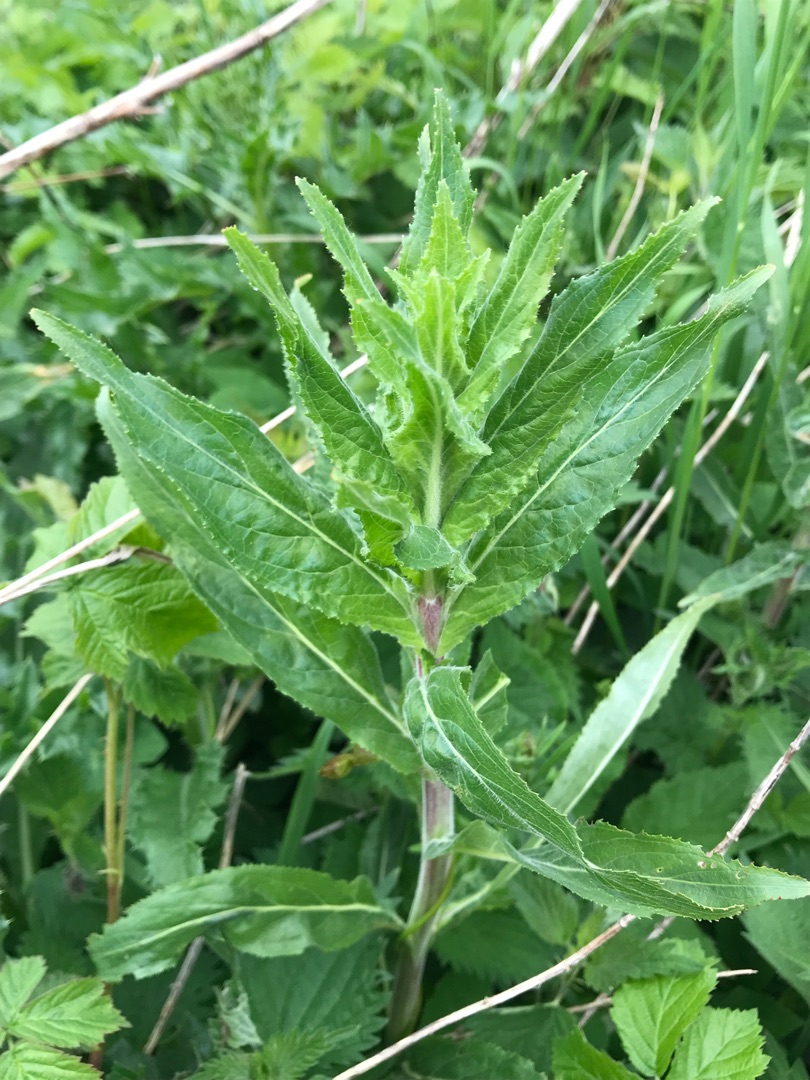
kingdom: Plantae
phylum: Tracheophyta
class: Magnoliopsida
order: Myrtales
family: Onagraceae
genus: Epilobium
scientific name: Epilobium hirsutum
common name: Lådden dueurt
